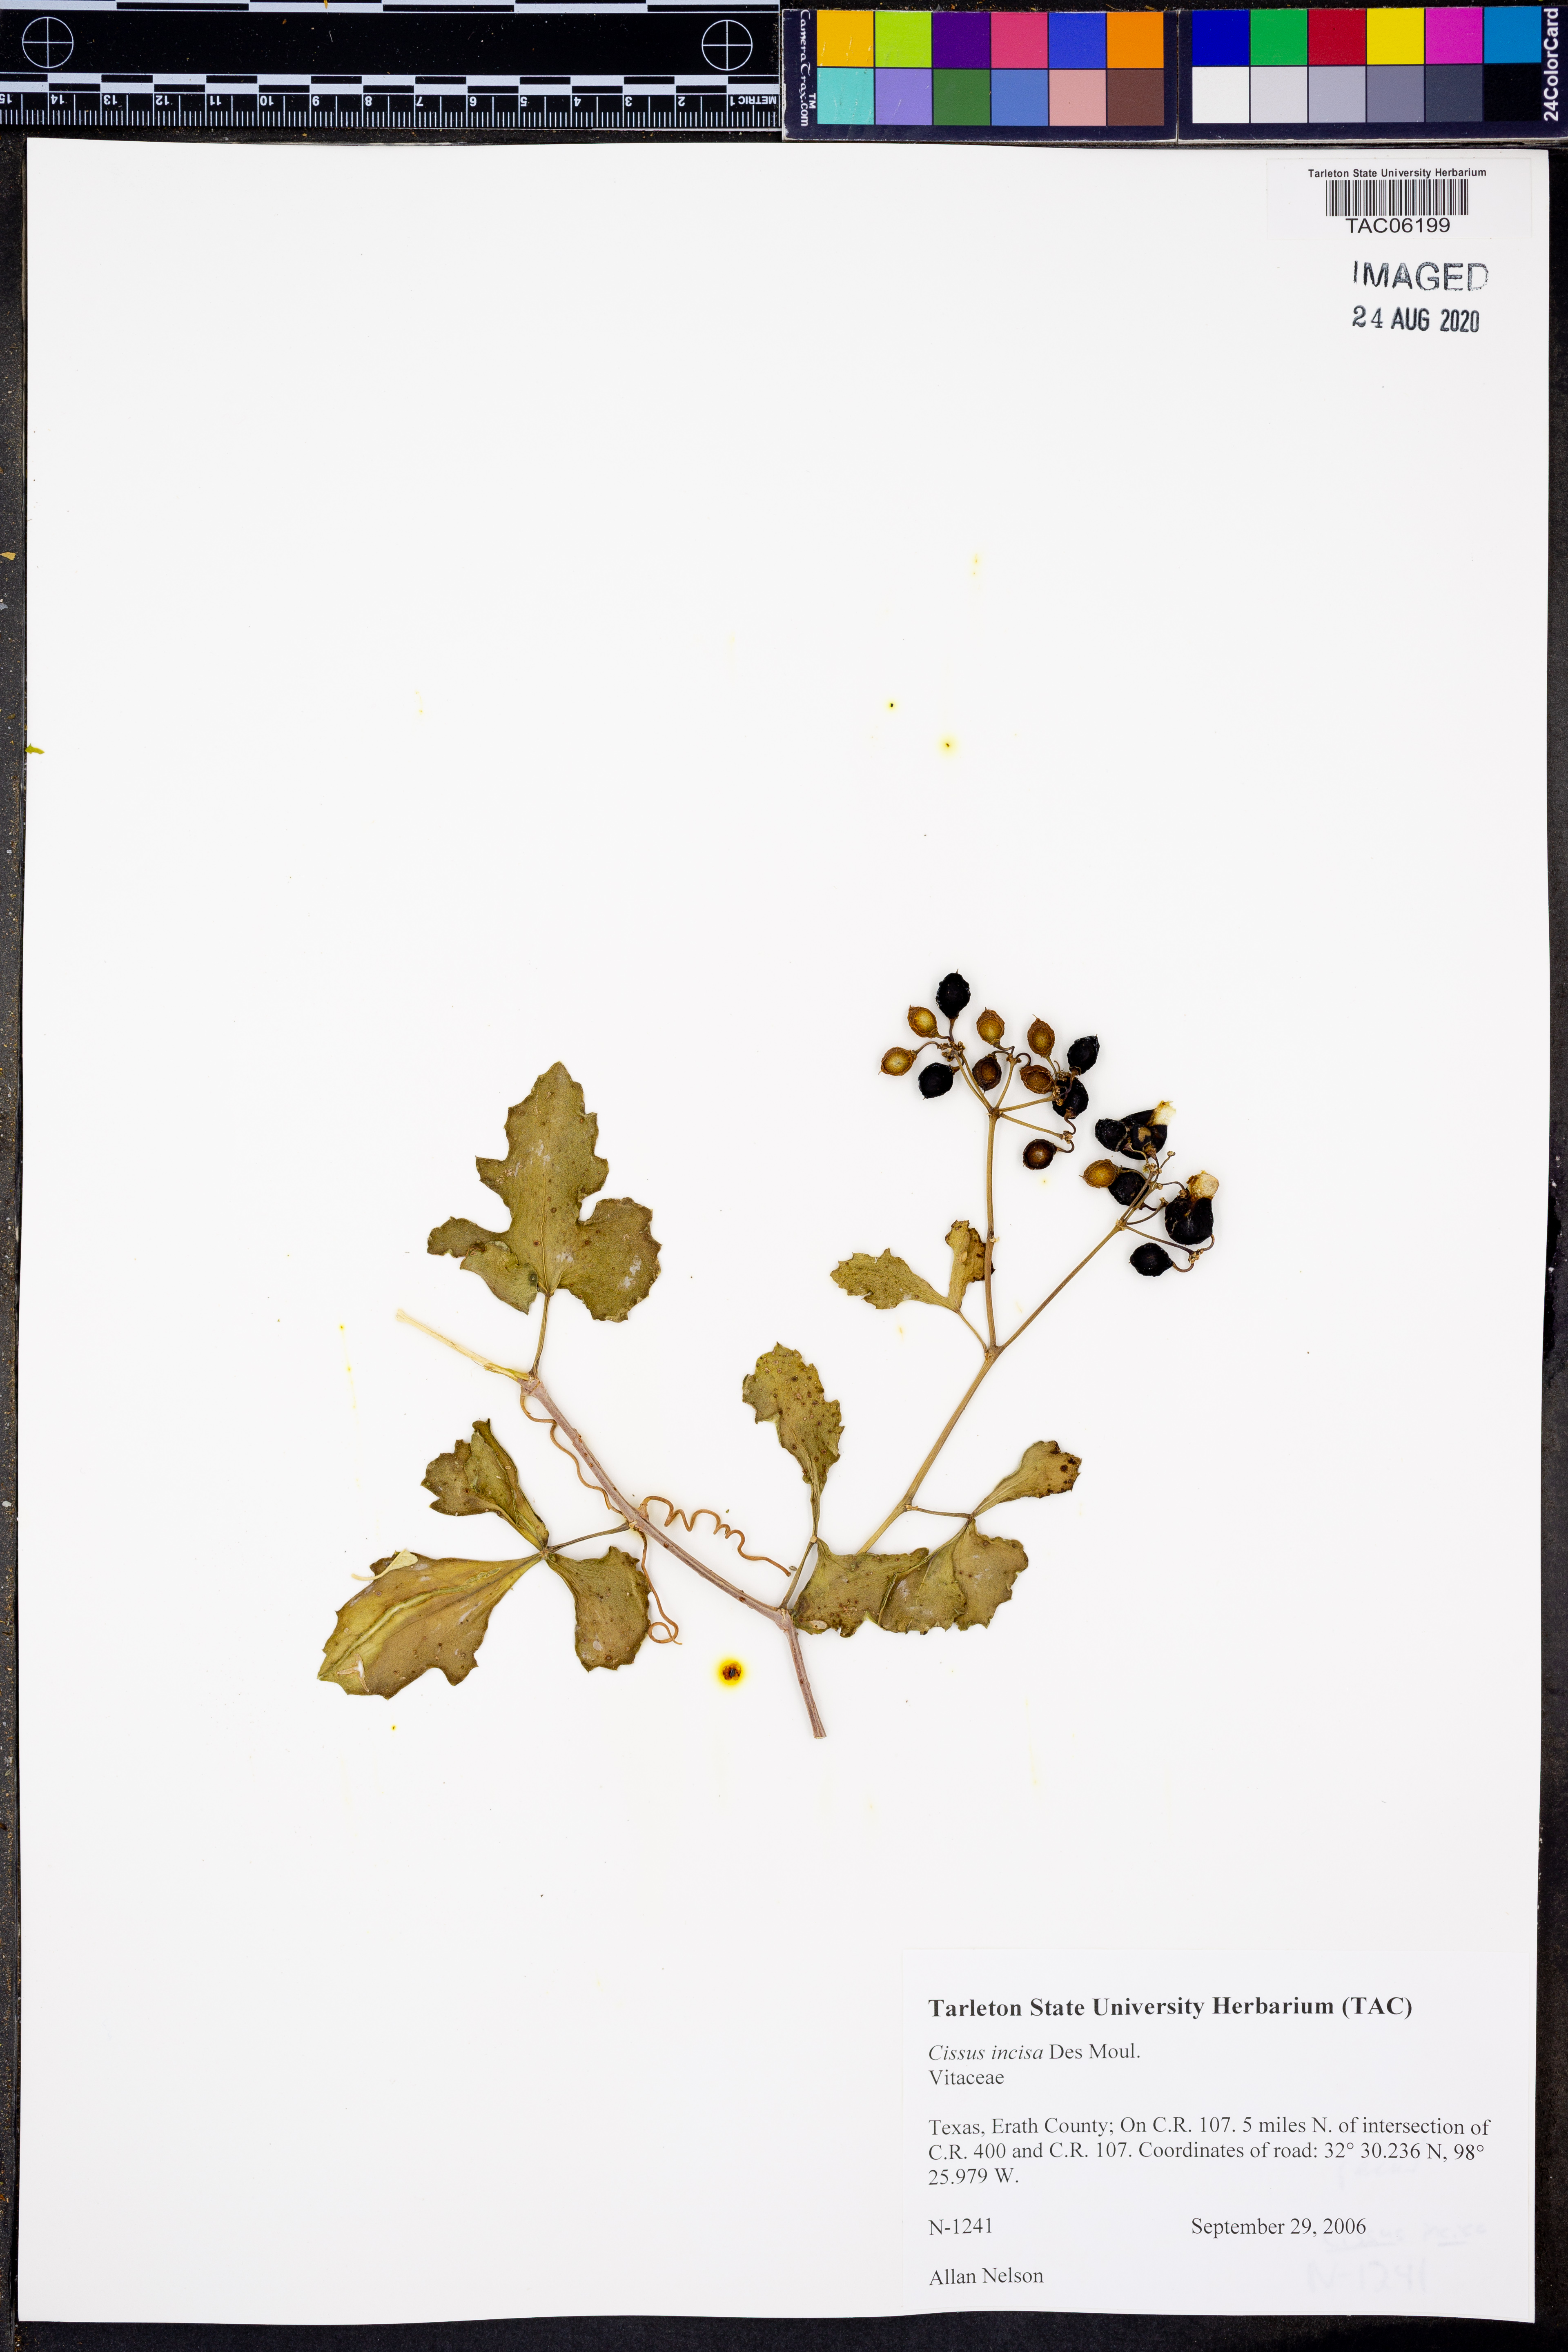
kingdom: Plantae
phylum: Tracheophyta
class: Magnoliopsida
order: Vitales
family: Vitaceae
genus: Cissus
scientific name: Cissus trifoliata
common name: Vine-sorrel
